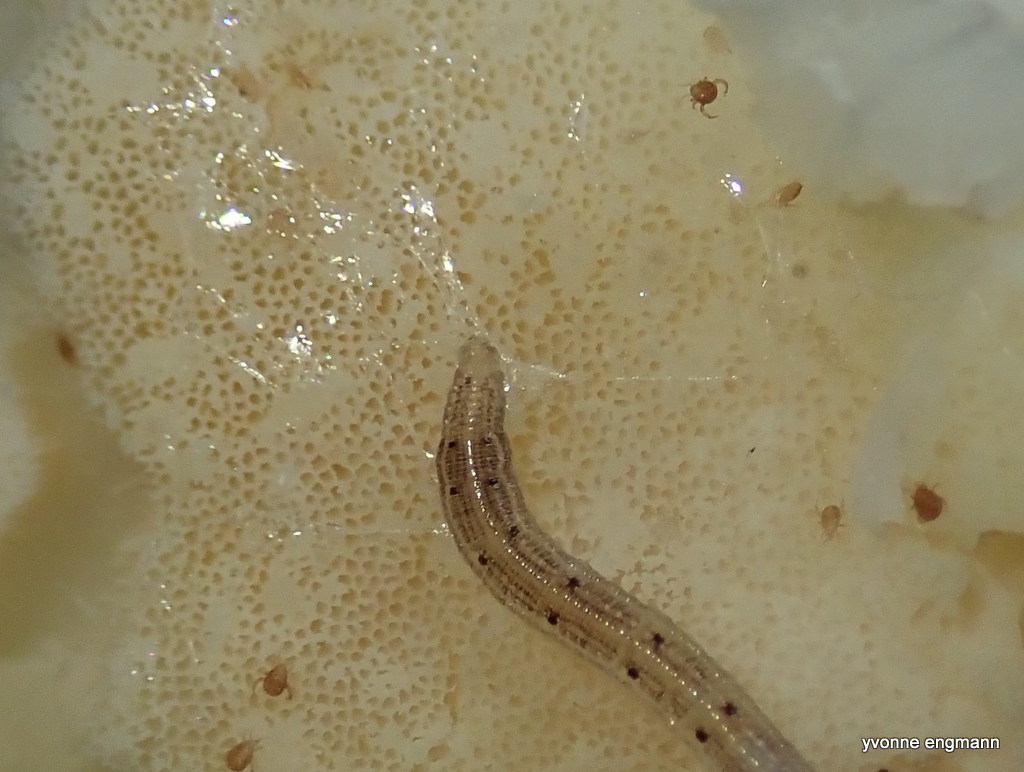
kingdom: Fungi
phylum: Ascomycota
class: Sordariomycetes
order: Hypocreales
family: Hypocreaceae
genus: Protocrea
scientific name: Protocrea pallida
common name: bleg kødkerne
